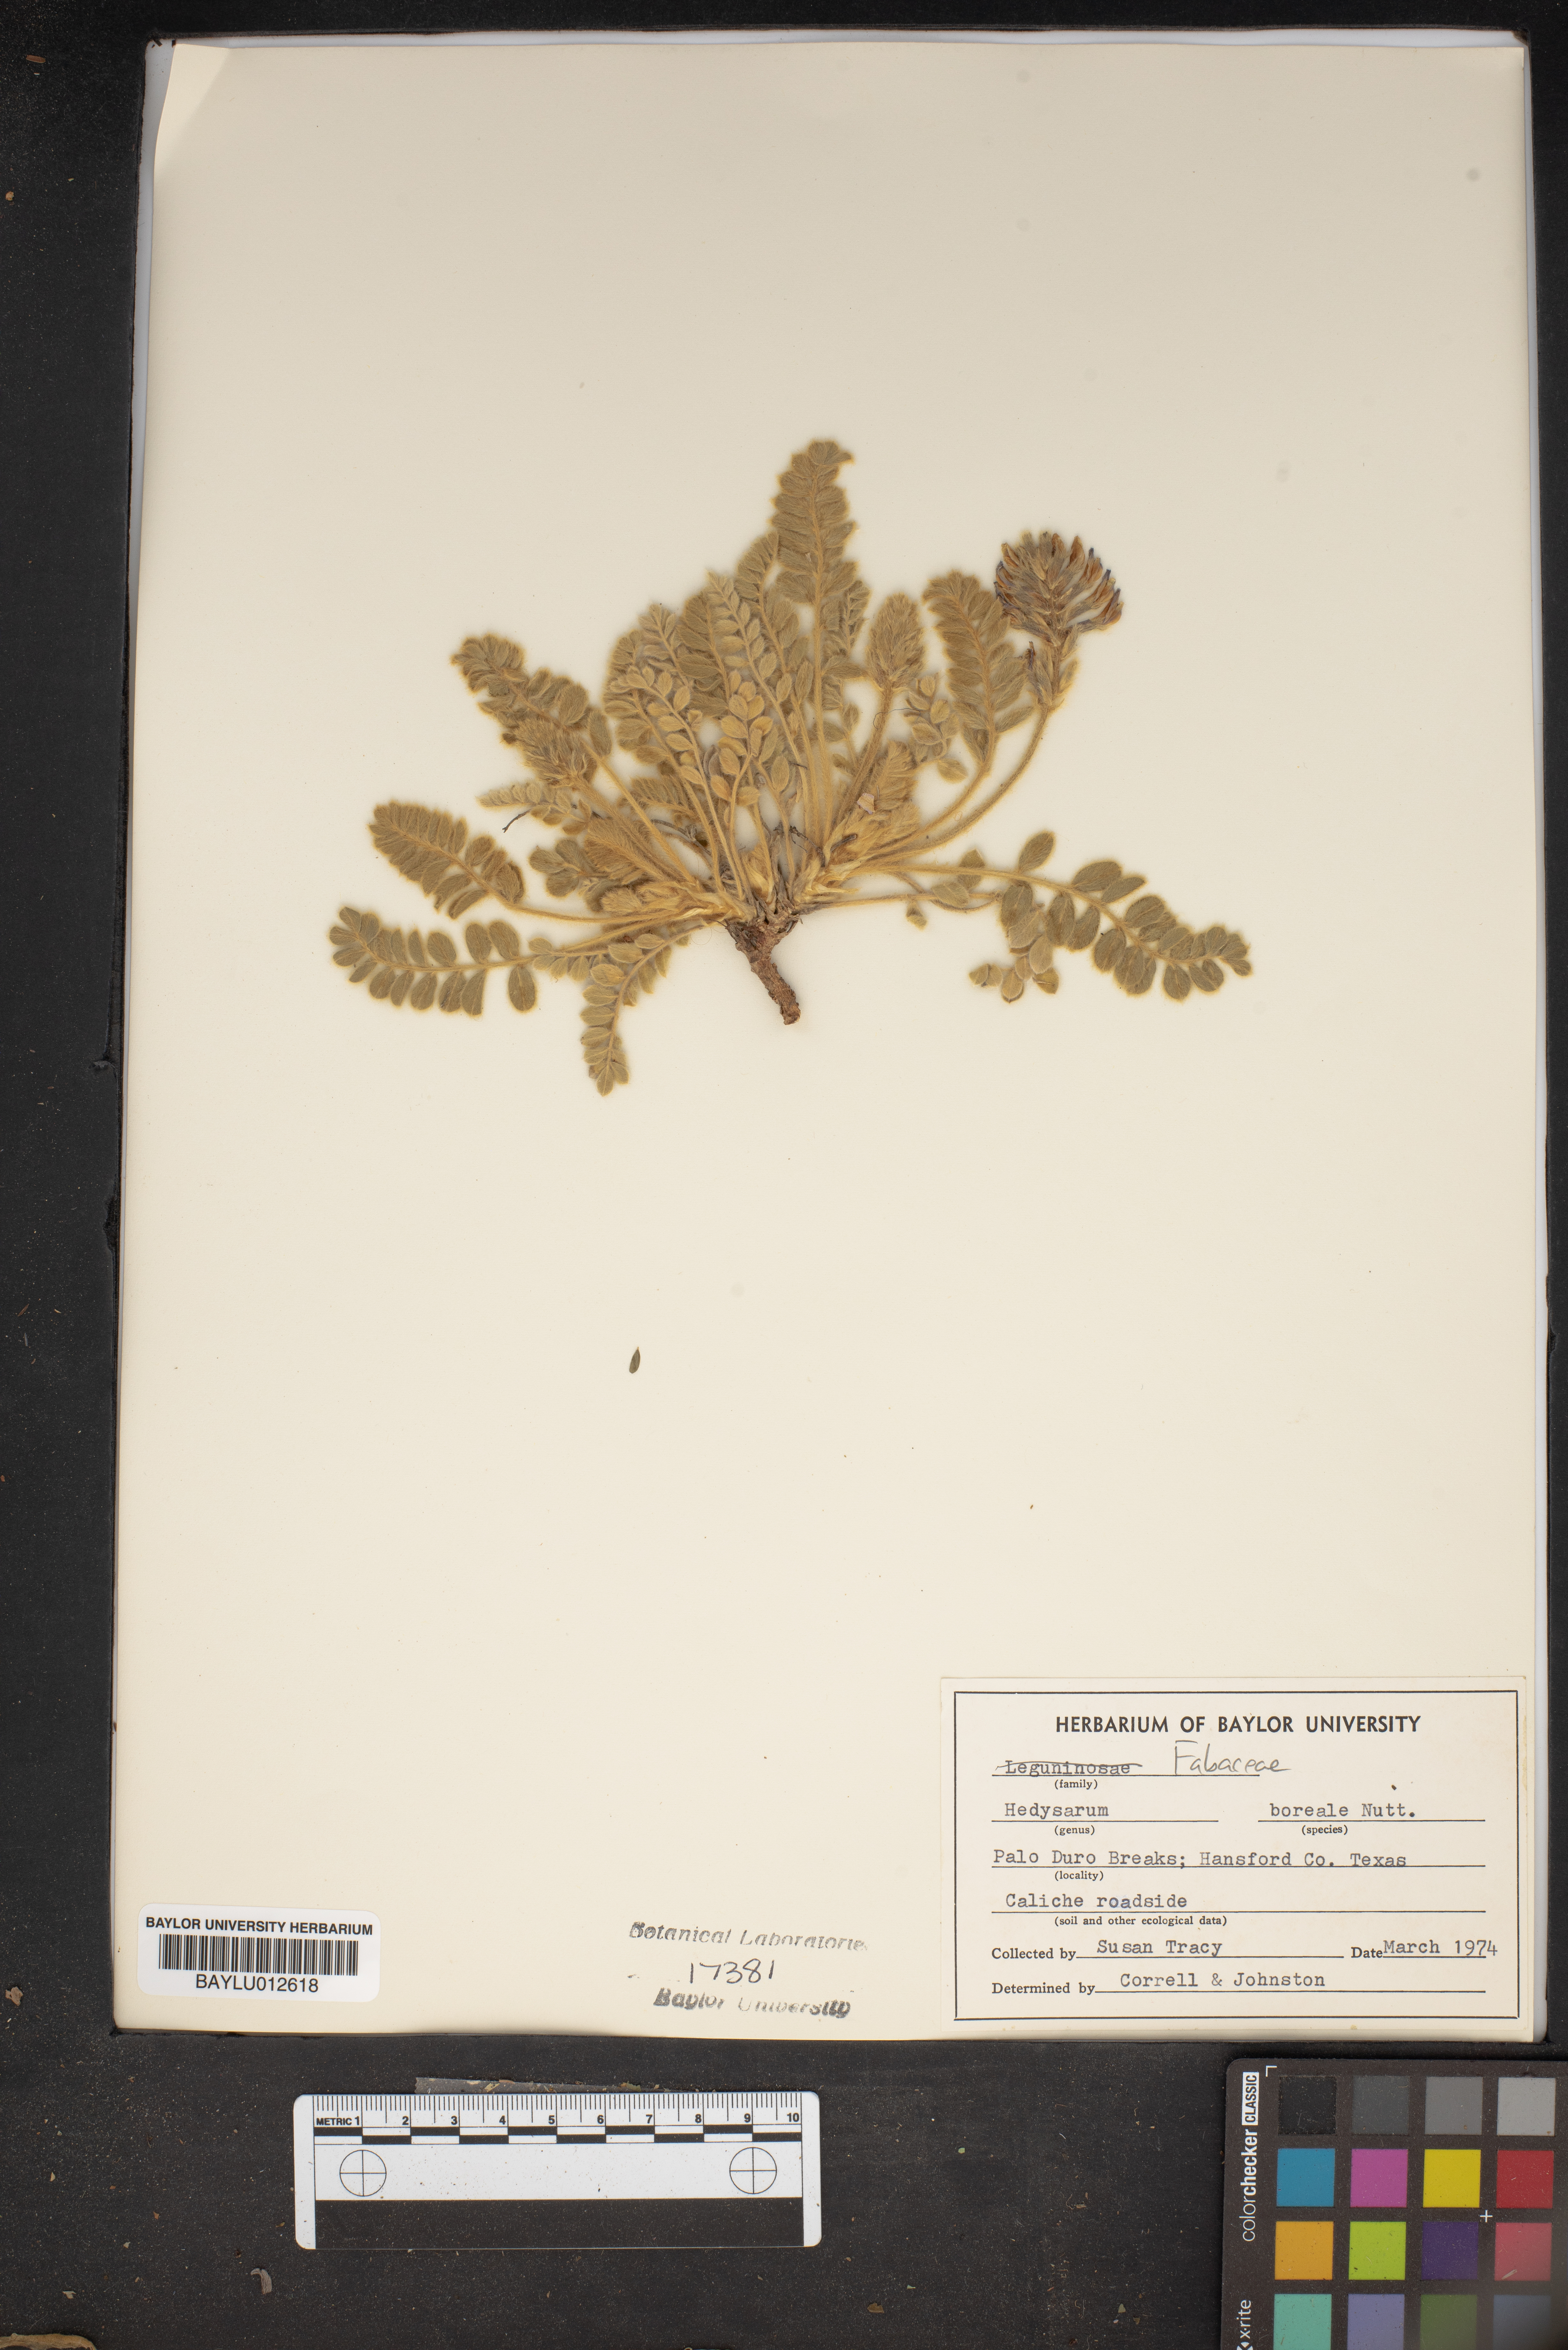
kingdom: Plantae
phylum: Tracheophyta
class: Magnoliopsida
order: Fabales
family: Fabaceae
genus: Hedysarum
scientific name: Hedysarum boreale
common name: Northern sweet-vetch
